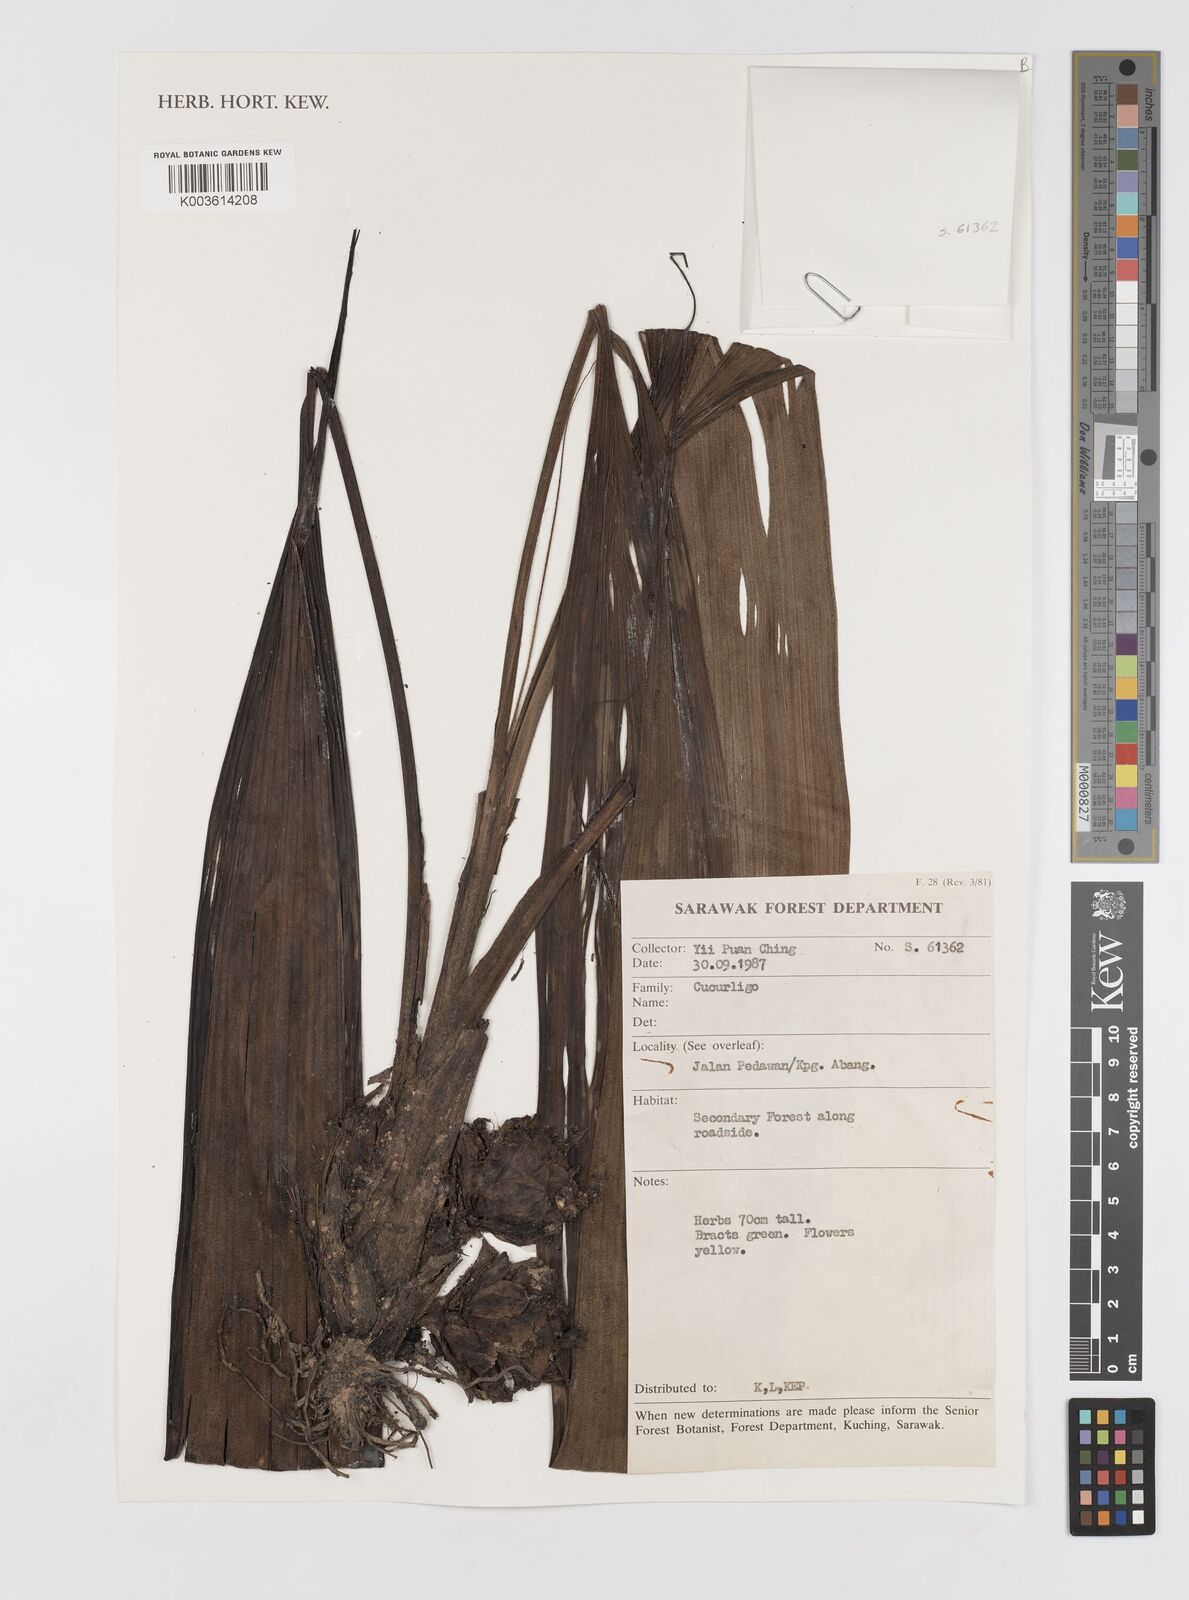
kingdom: Plantae
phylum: Tracheophyta
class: Liliopsida
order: Asparagales
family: Hypoxidaceae
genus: Curculigo
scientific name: Curculigo
